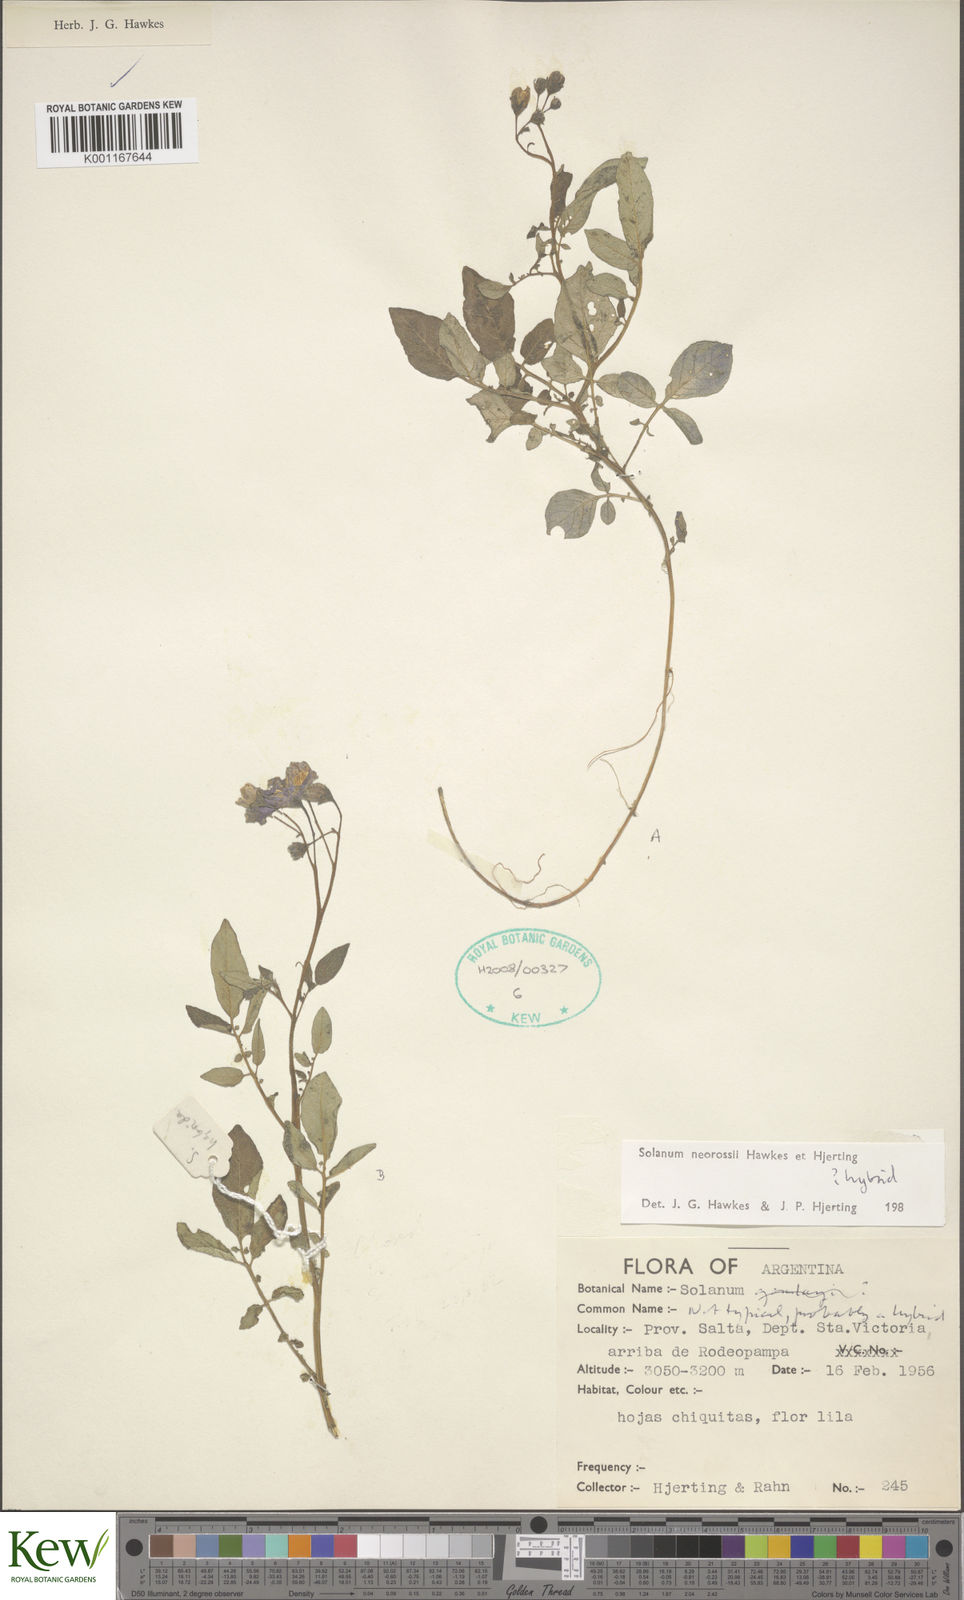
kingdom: Plantae
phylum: Tracheophyta
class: Magnoliopsida
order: Solanales
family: Solanaceae
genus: Solanum
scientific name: Solanum neorossii
